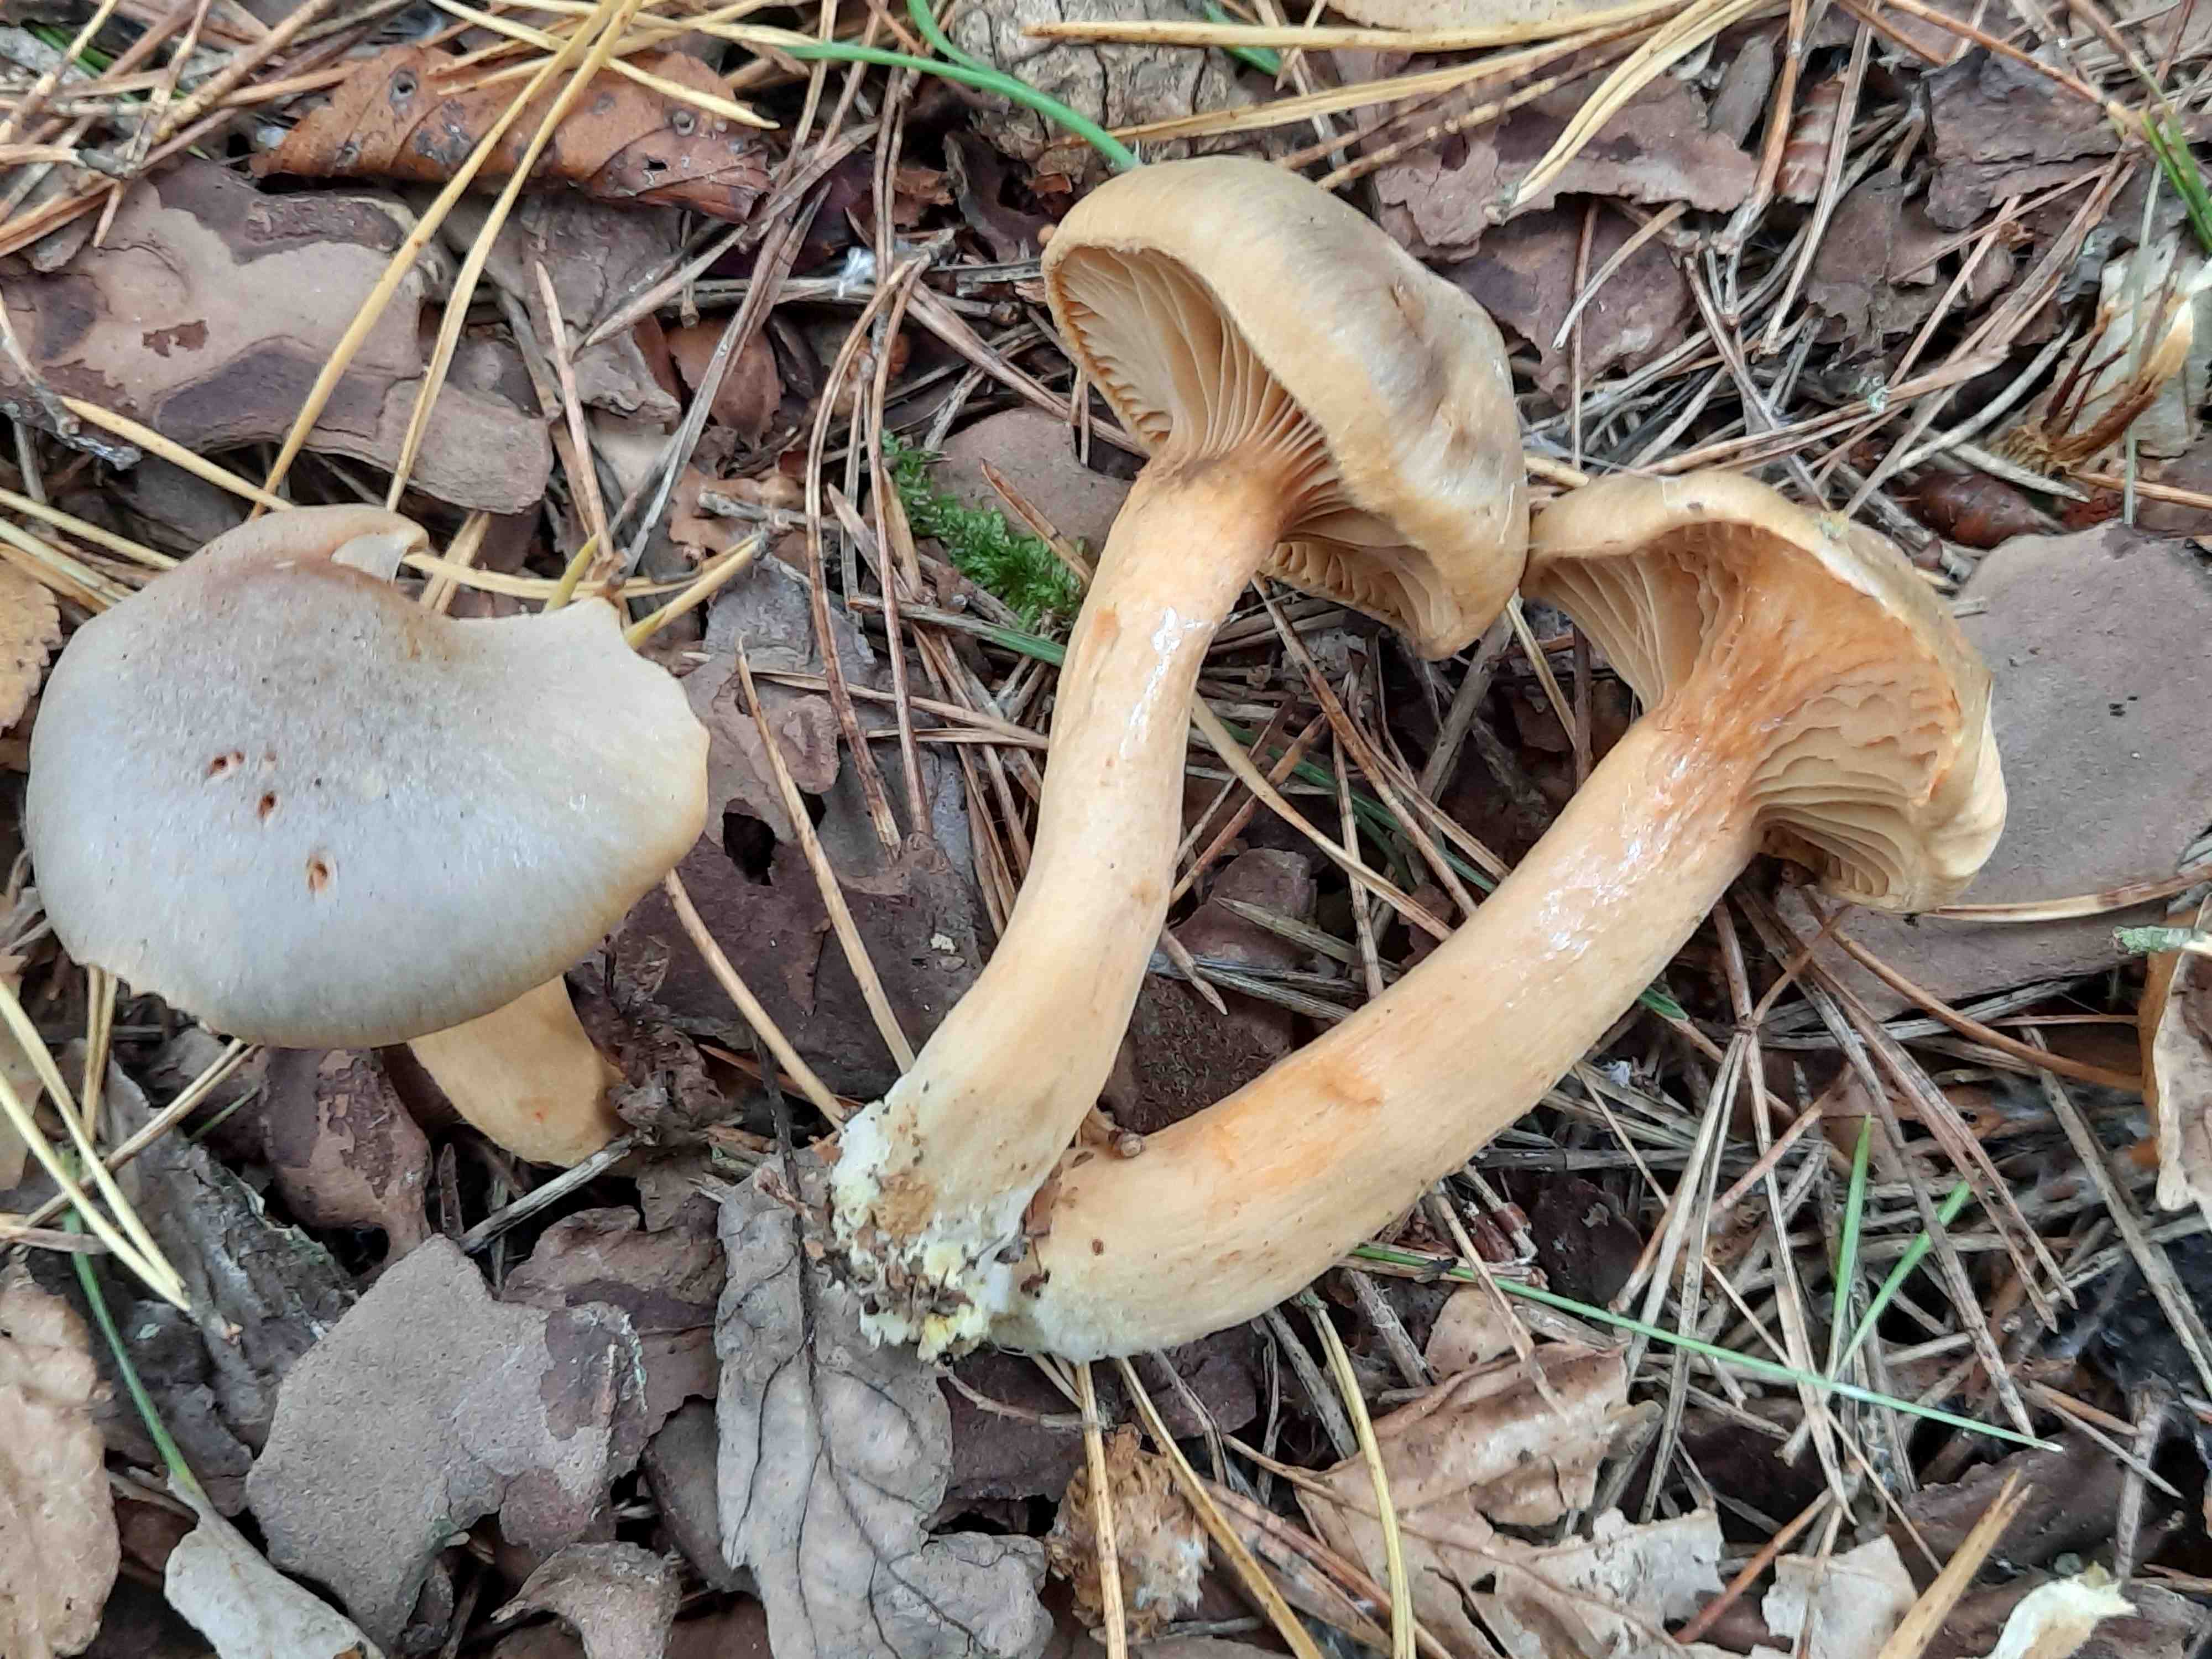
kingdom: Fungi
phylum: Basidiomycota
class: Agaricomycetes
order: Boletales
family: Gomphidiaceae
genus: Chroogomphus
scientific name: Chroogomphus rutilus
